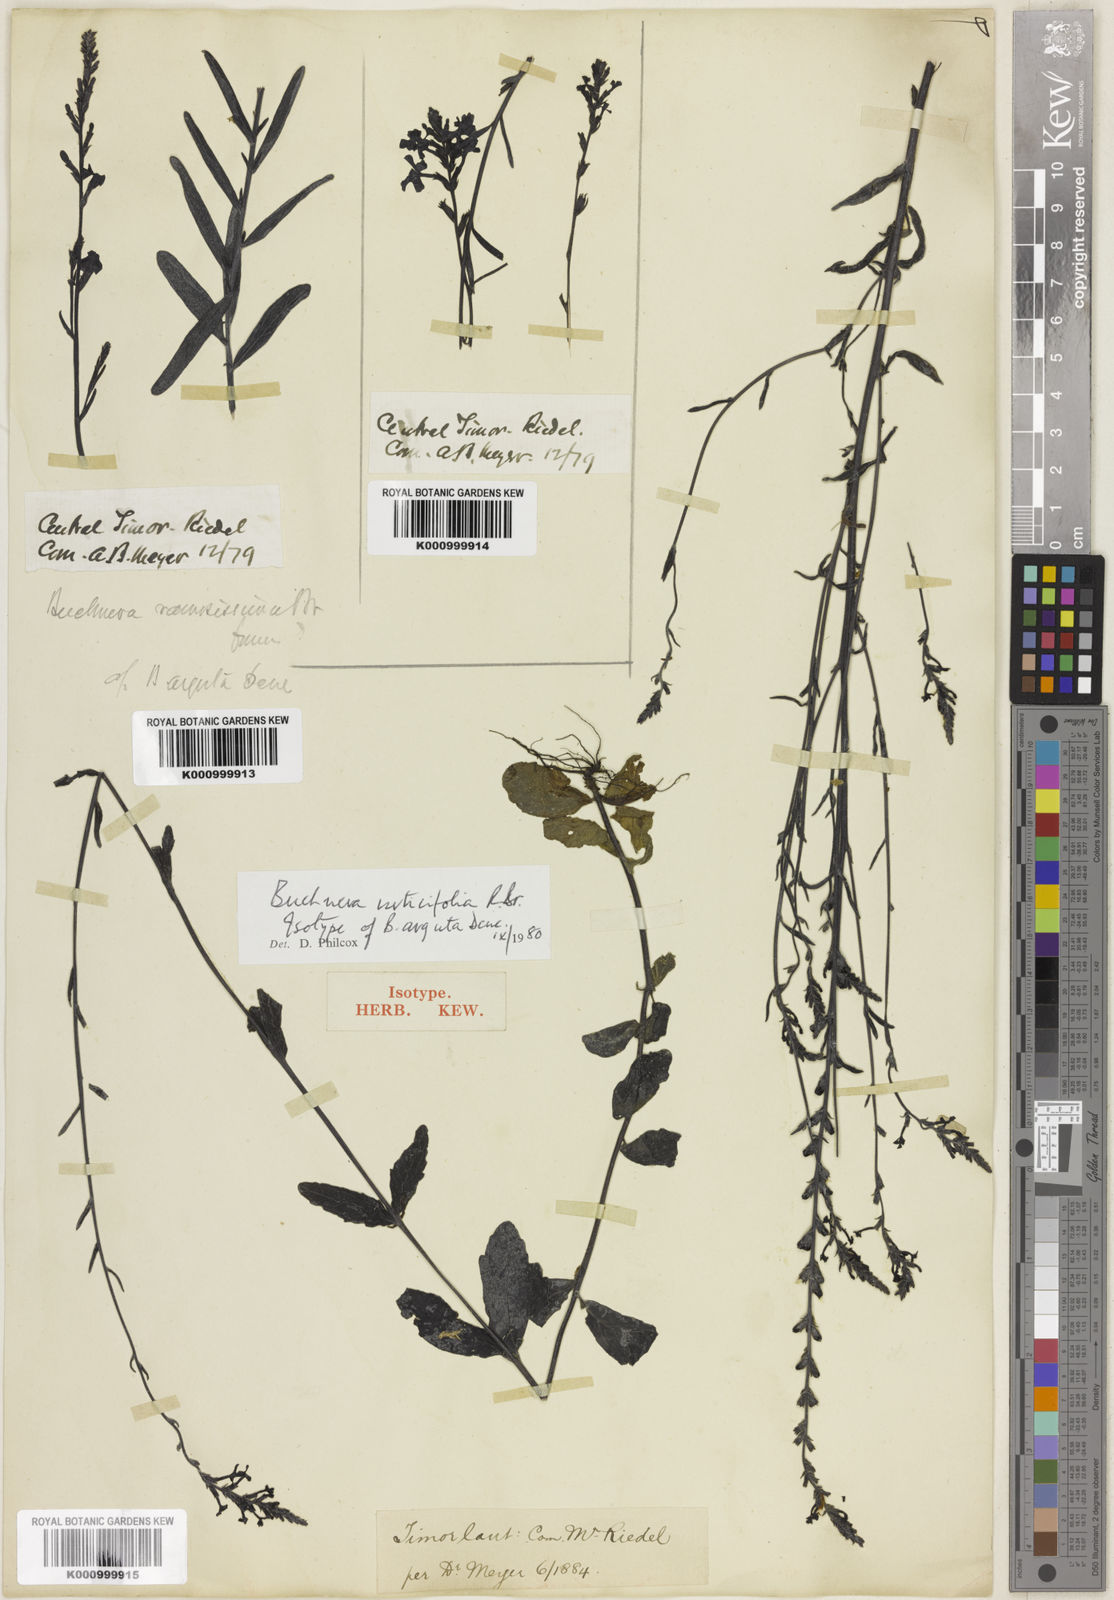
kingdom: Plantae
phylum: Tracheophyta
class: Magnoliopsida
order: Lamiales
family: Orobanchaceae
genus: Buchnera
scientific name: Buchnera urticifolia
